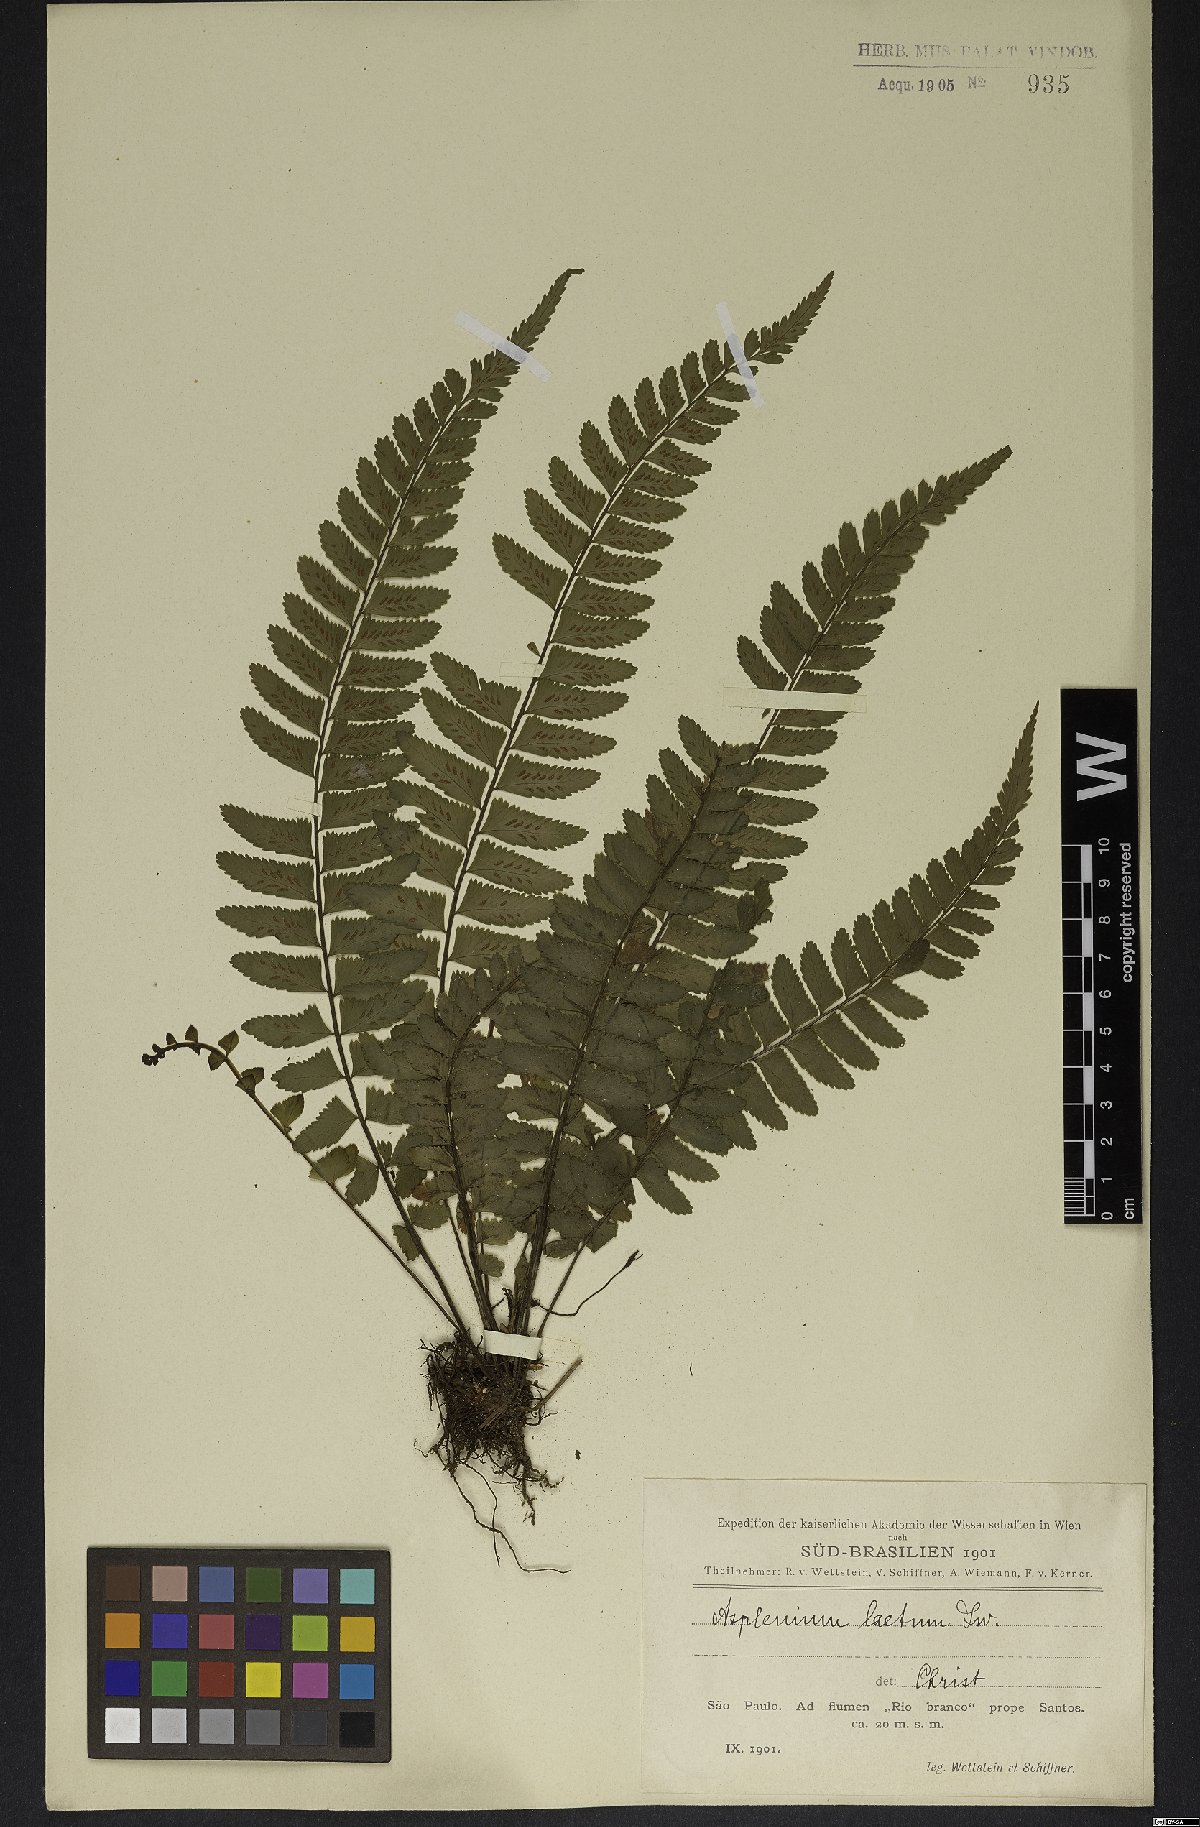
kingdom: Plantae
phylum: Tracheophyta
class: Polypodiopsida
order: Polypodiales
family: Aspleniaceae
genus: Hymenasplenium
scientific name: Hymenasplenium laetum
